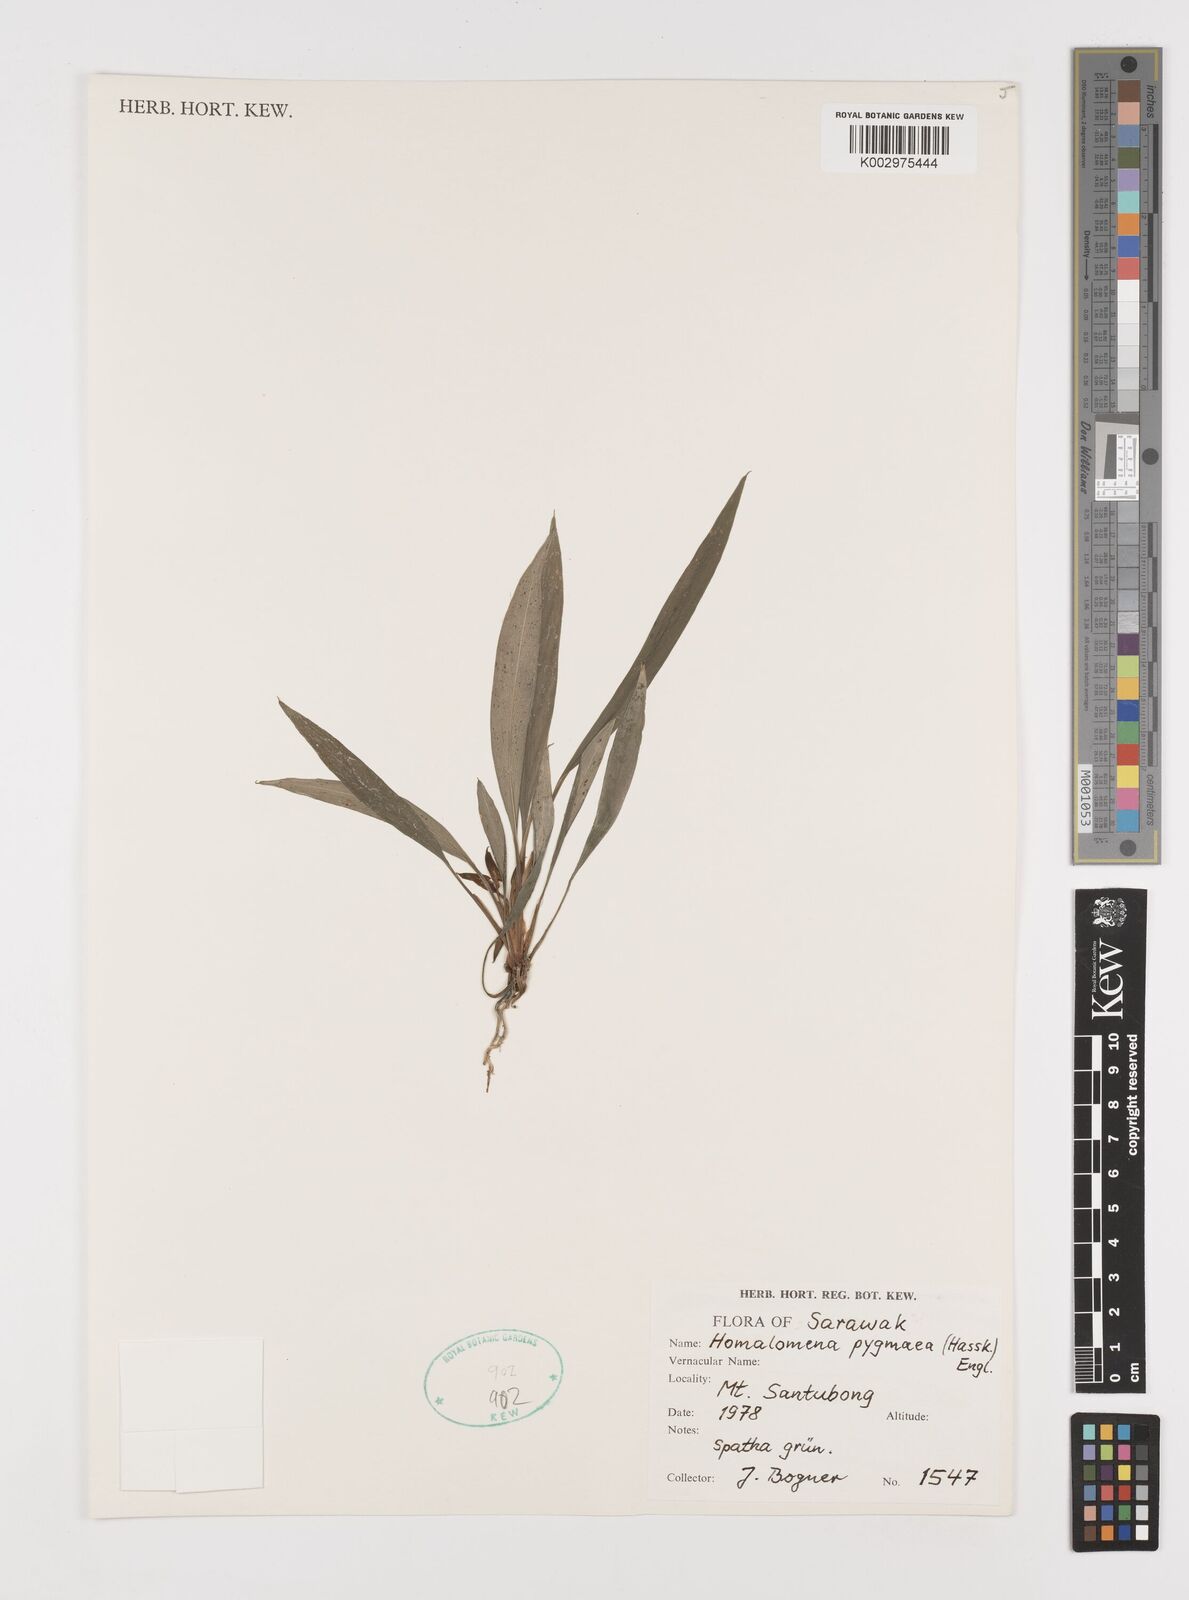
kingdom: Plantae
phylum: Tracheophyta
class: Liliopsida
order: Alismatales
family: Araceae
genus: Homalomena
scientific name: Homalomena humilis
